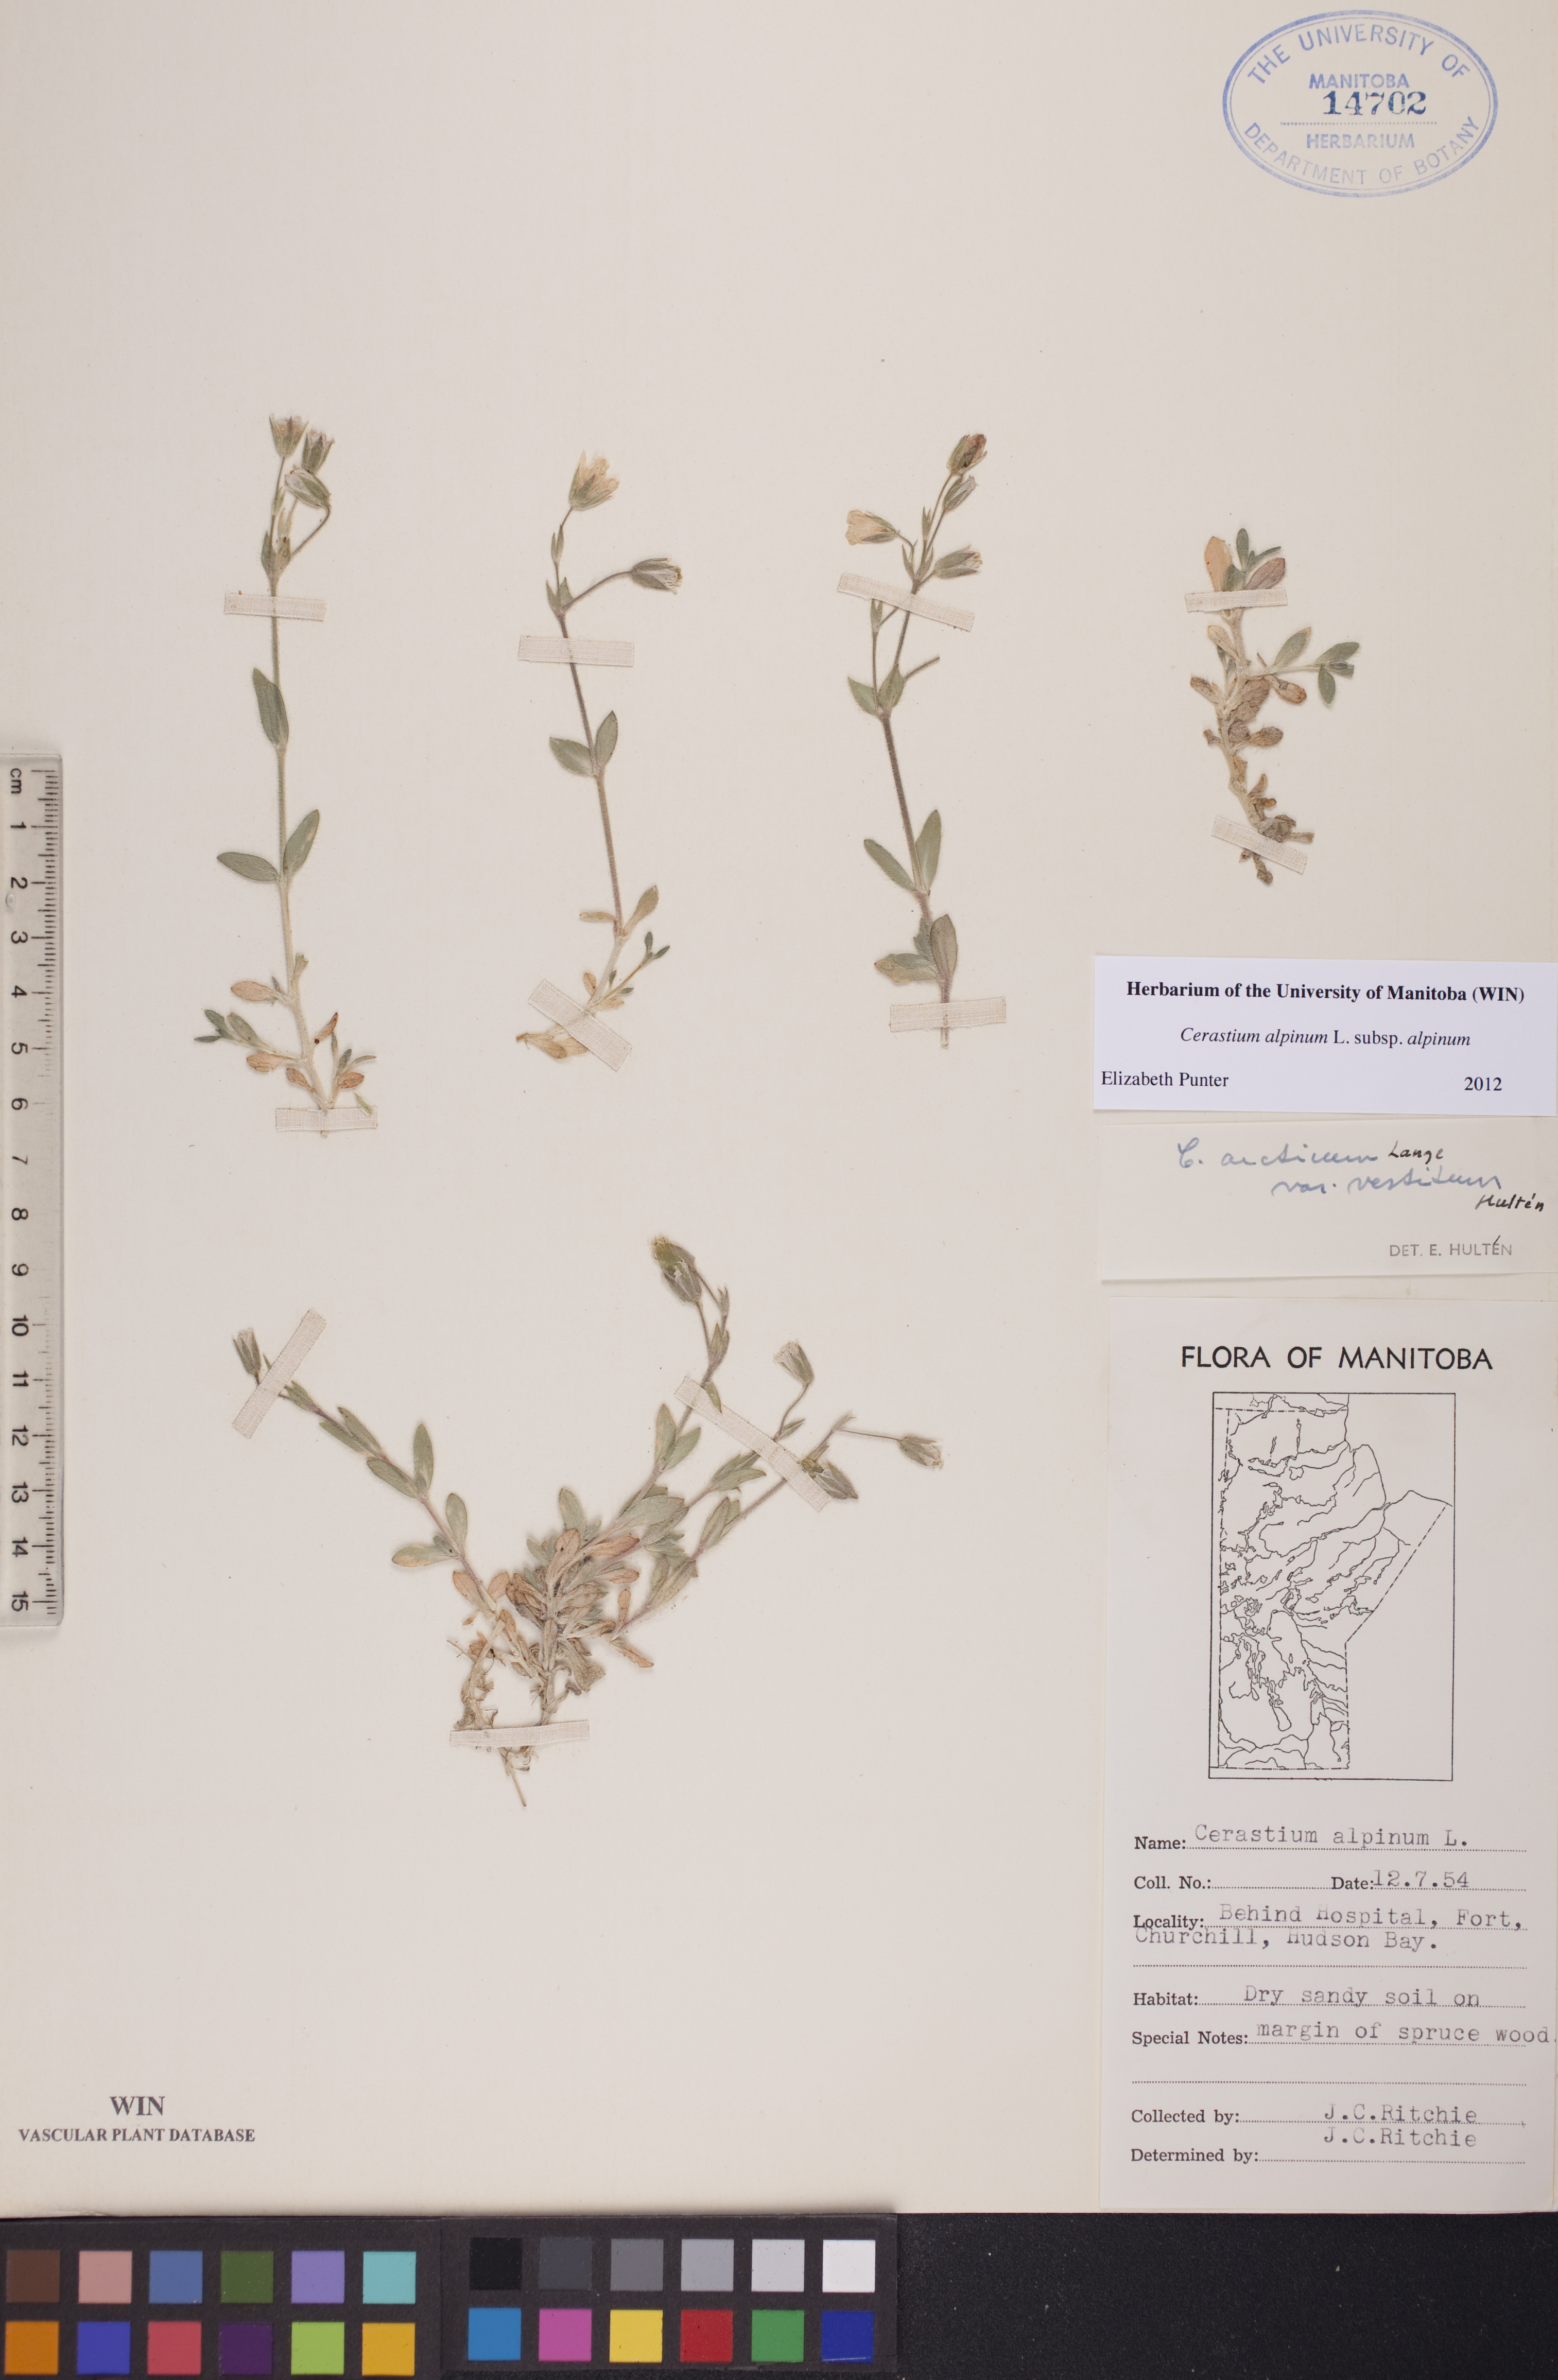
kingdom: Plantae
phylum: Tracheophyta
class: Magnoliopsida
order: Caryophyllales
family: Caryophyllaceae
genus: Cerastium
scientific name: Cerastium alpinum
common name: Alpine mouse-ear
